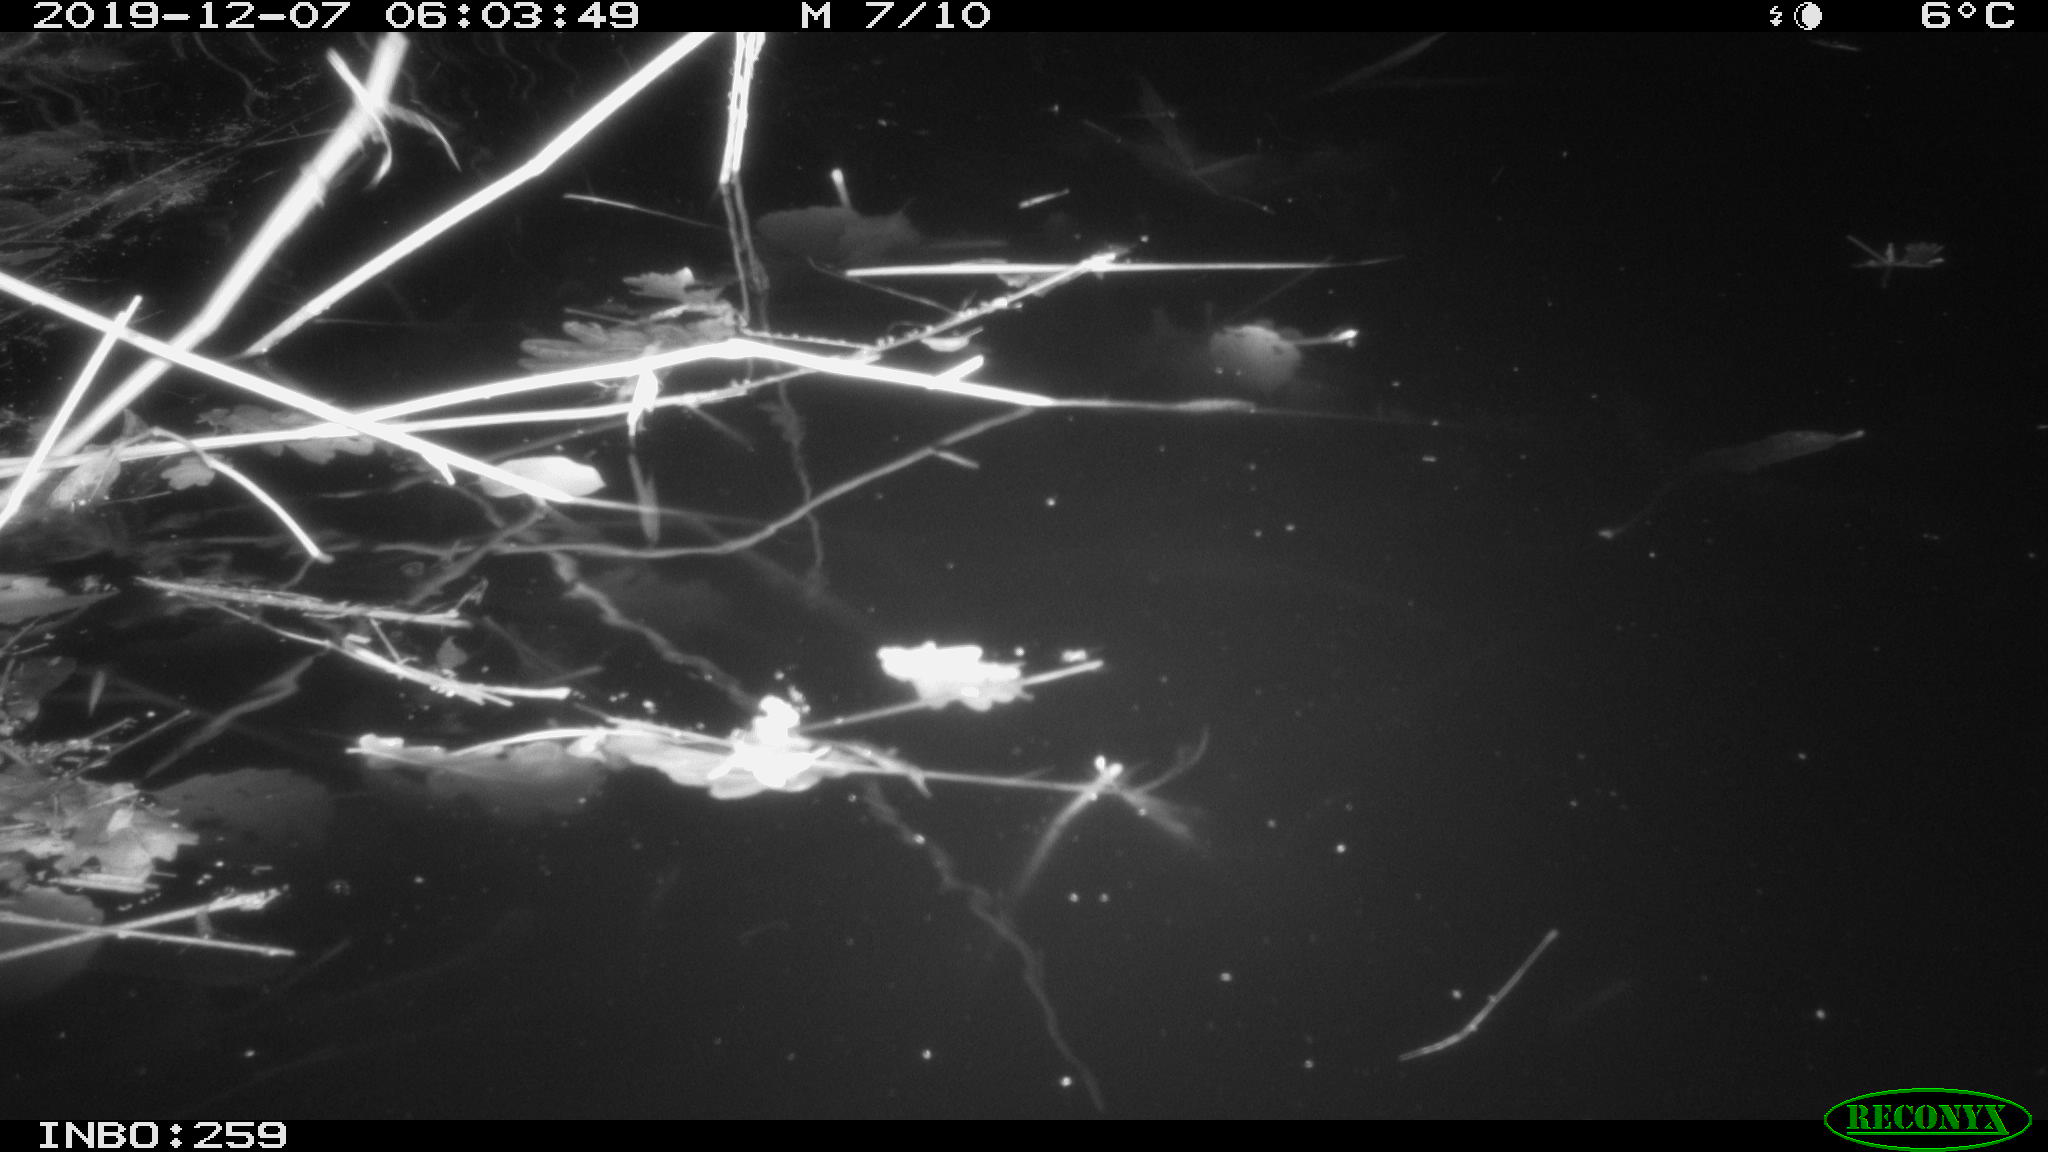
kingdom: Animalia
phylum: Chordata
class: Mammalia
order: Rodentia
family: Muridae
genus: Rattus
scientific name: Rattus norvegicus
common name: Brown rat
